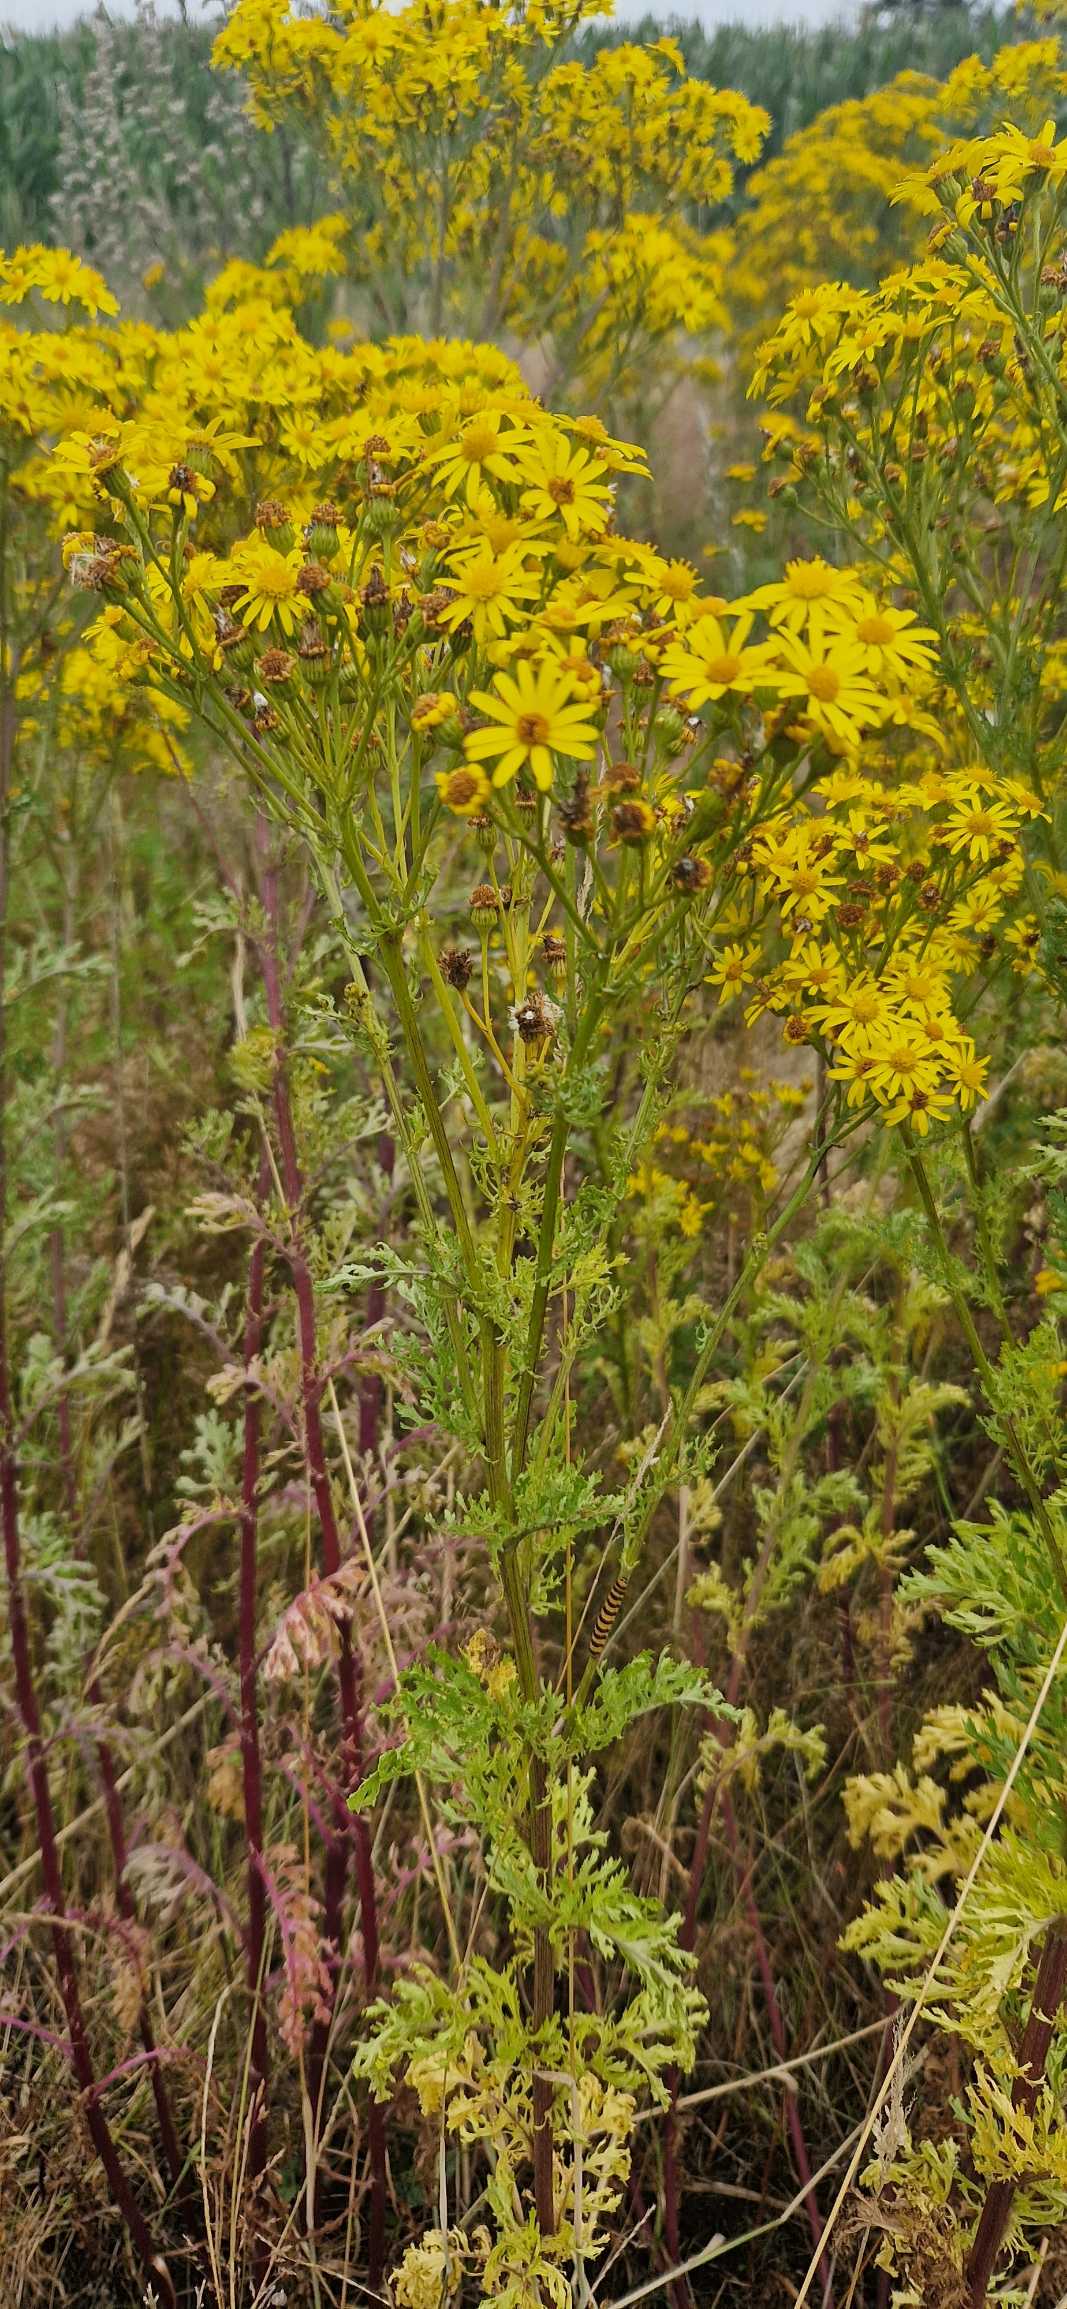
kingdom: Plantae
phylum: Tracheophyta
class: Magnoliopsida
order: Asterales
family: Asteraceae
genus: Jacobaea
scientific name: Jacobaea vulgaris
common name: Eng-brandbæger
